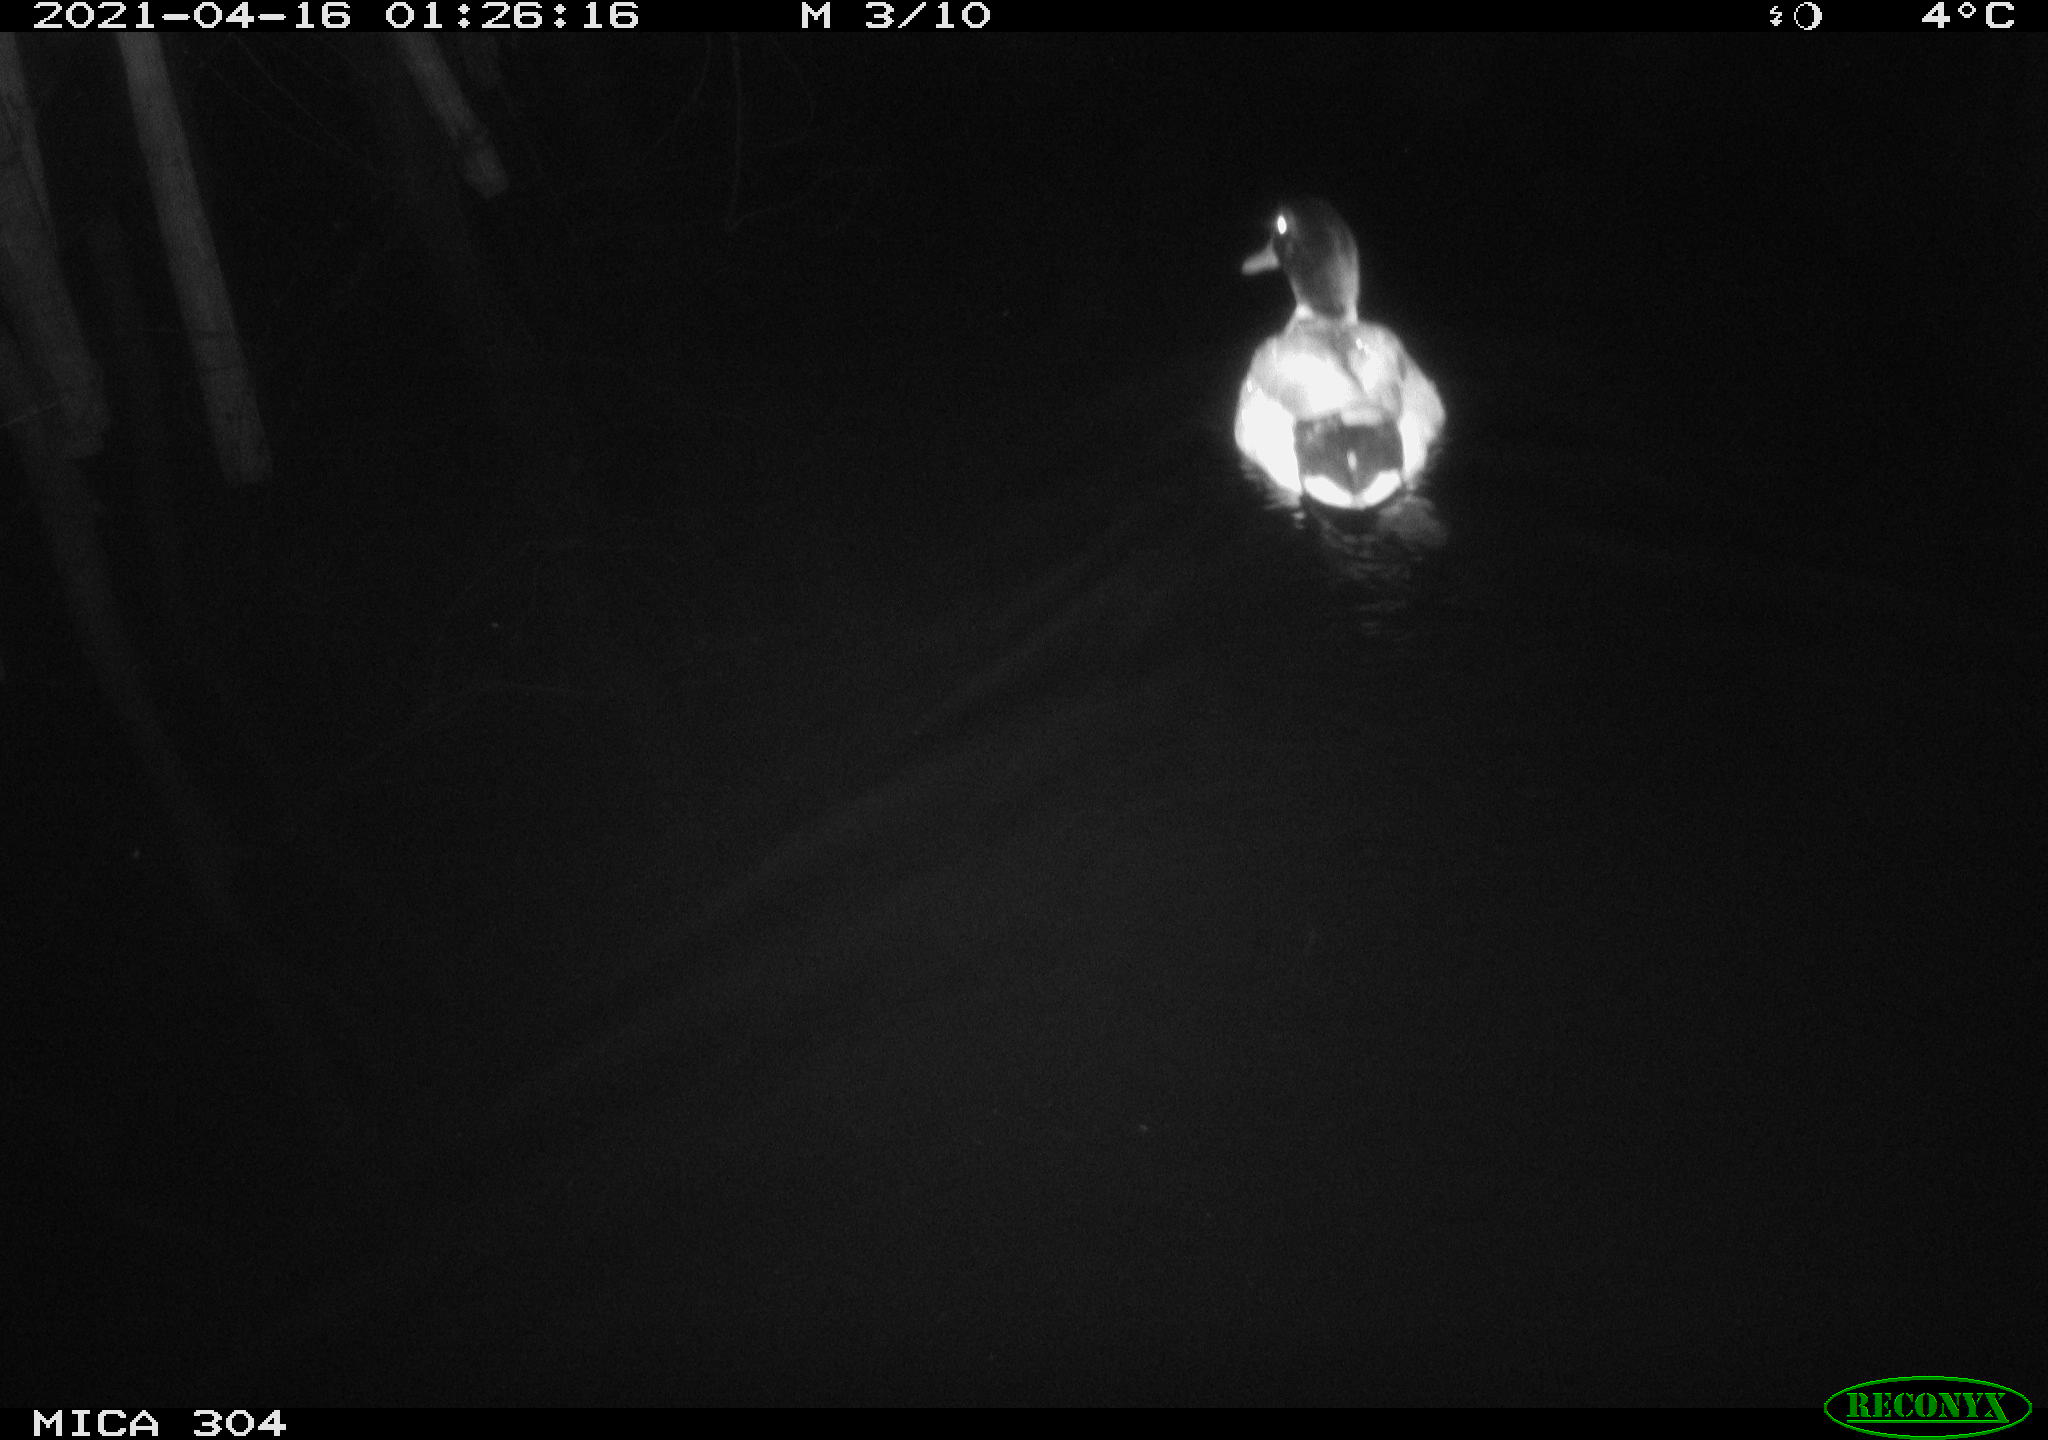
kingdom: Animalia
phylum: Chordata
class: Aves
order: Anseriformes
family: Anatidae
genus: Anas
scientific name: Anas
